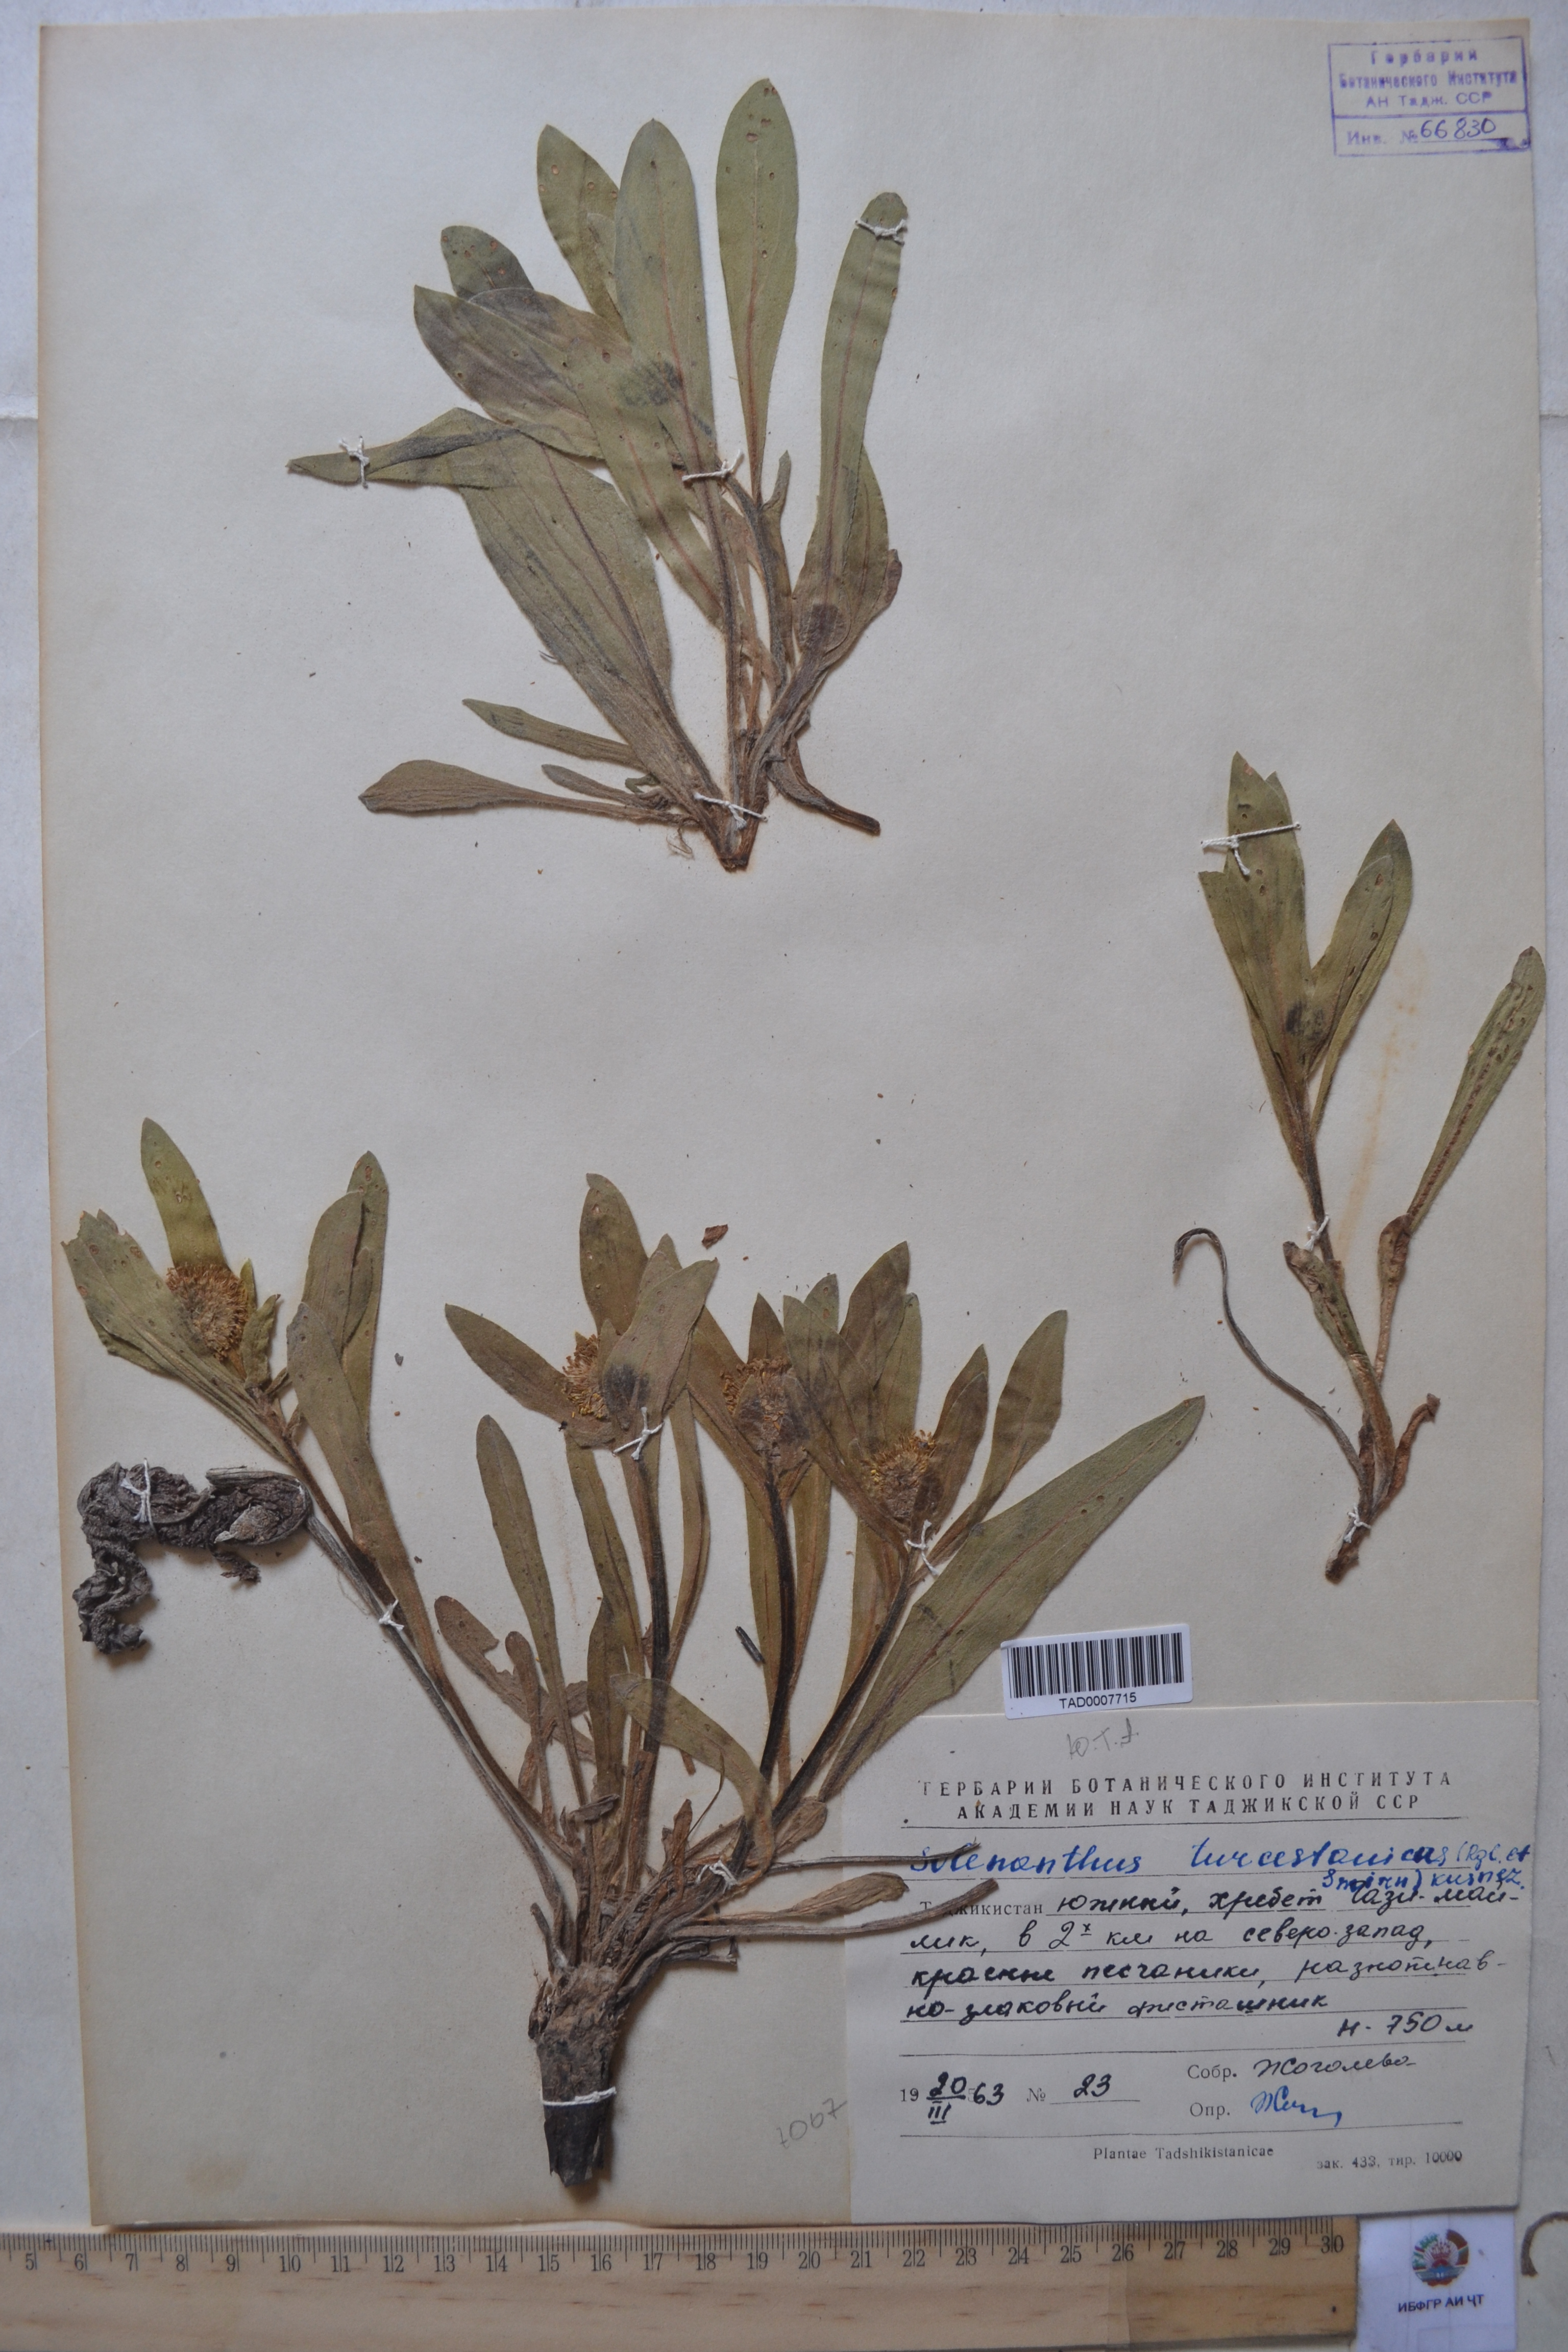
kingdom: Plantae
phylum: Tracheophyta
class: Magnoliopsida
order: Boraginales
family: Boraginaceae
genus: Solenanthus
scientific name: Solenanthus turkestanicus
